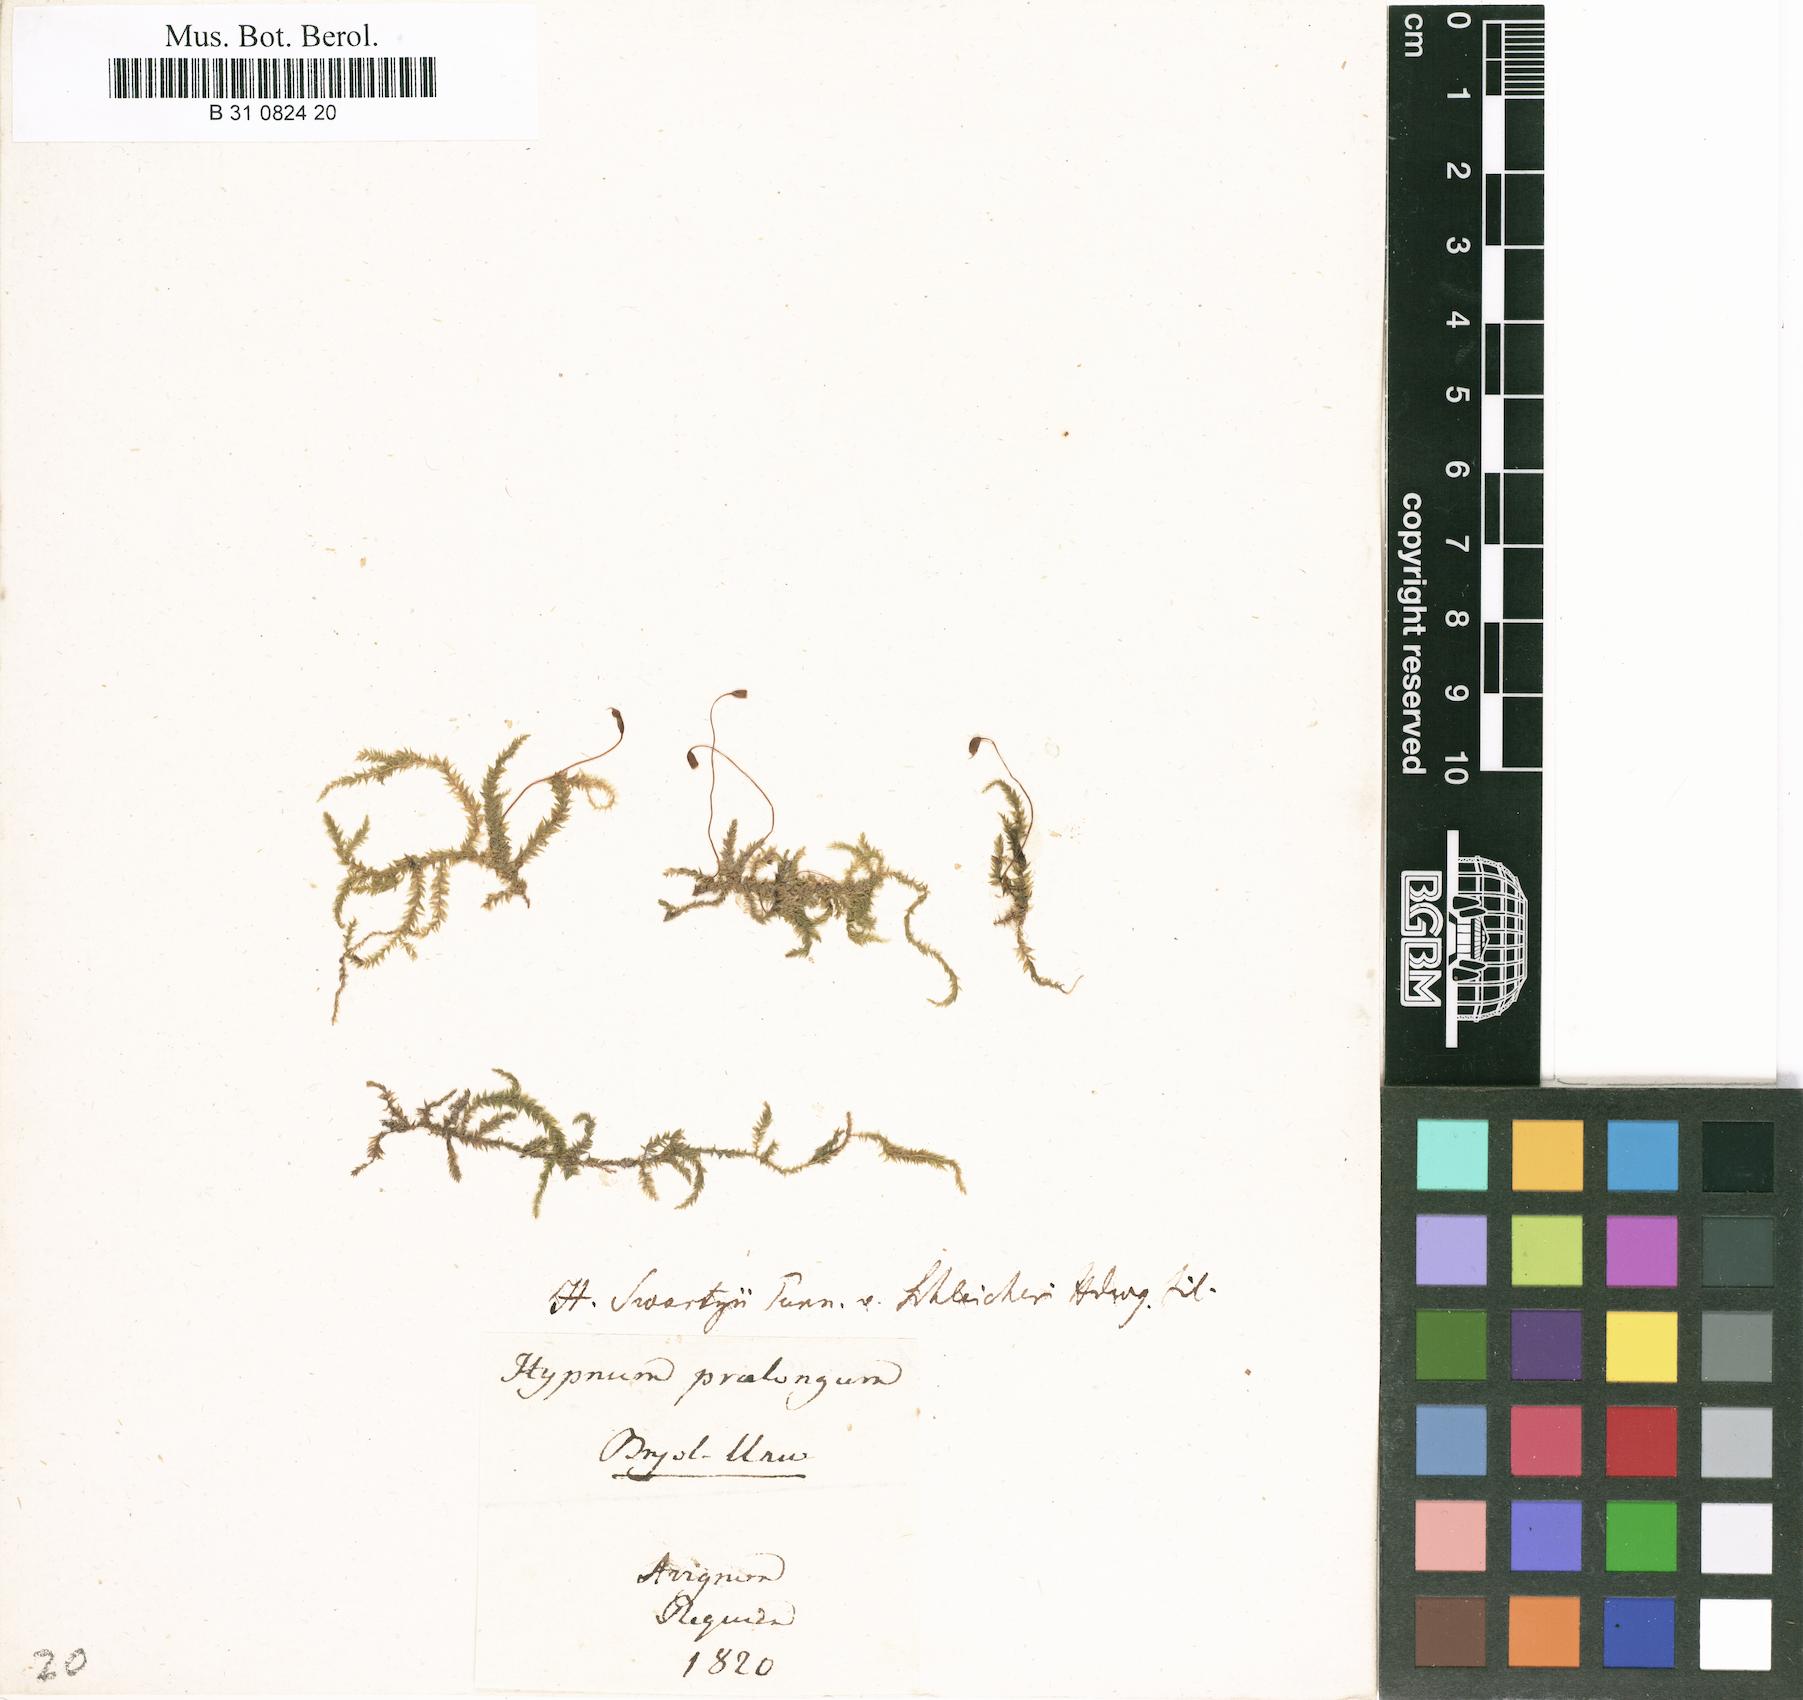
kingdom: Plantae
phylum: Bryophyta
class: Bryopsida
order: Hypnales
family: Brachytheciaceae
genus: Kindbergia
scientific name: Kindbergia praelonga
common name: Slender beaked moss
